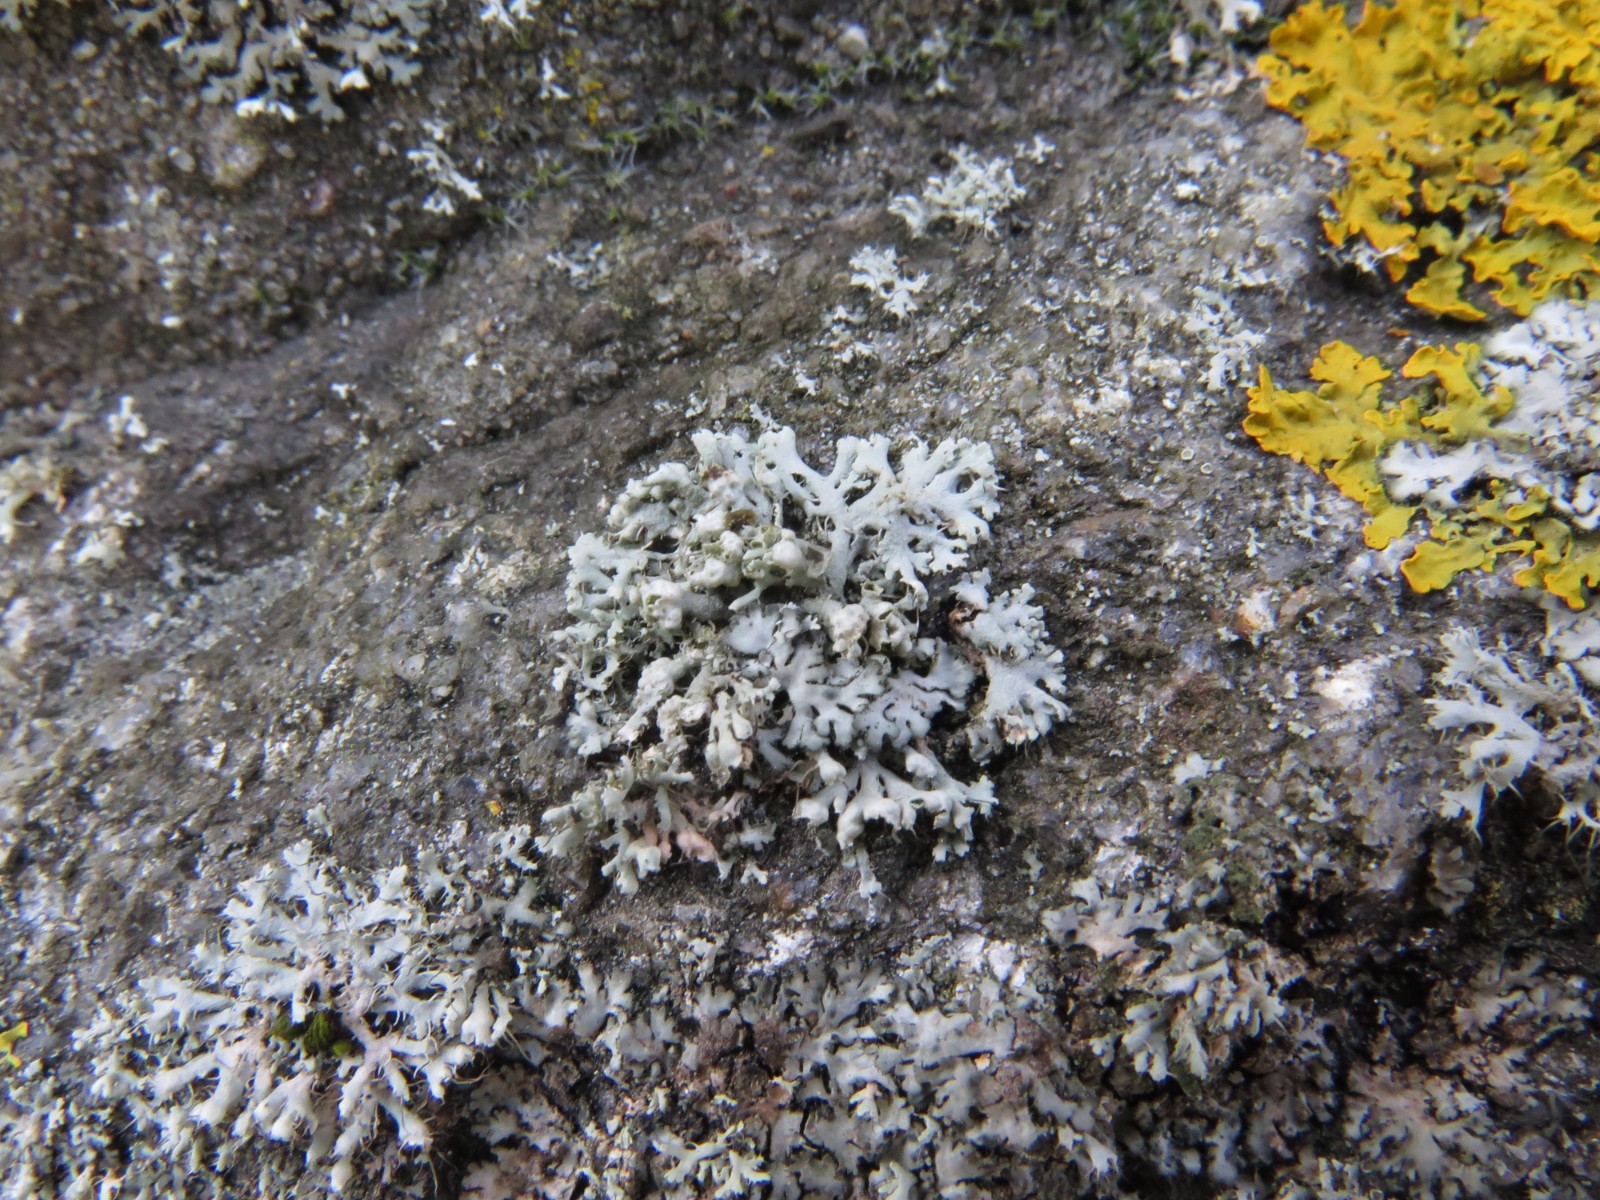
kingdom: Fungi
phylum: Ascomycota
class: Lecanoromycetes
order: Caliciales
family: Physciaceae
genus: Physcia
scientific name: Physcia adscendens
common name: hætte-rosetlav
